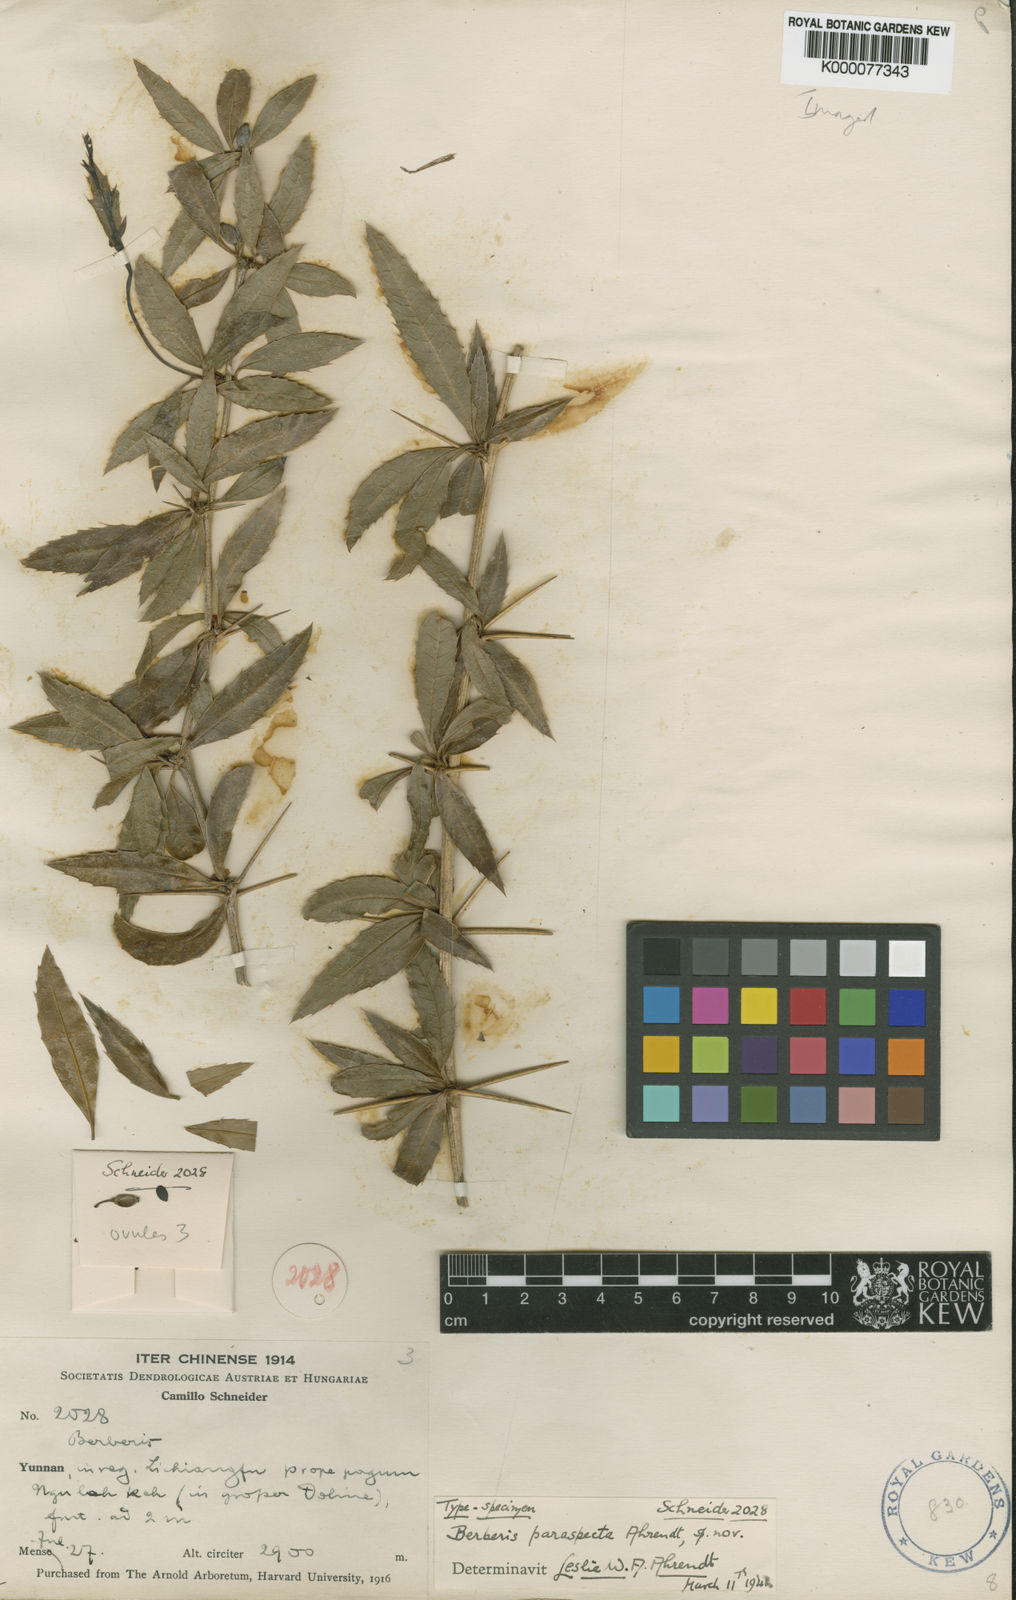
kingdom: Plantae
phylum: Tracheophyta
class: Magnoliopsida
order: Ranunculales
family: Berberidaceae
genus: Berberis
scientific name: Berberis delavayi
